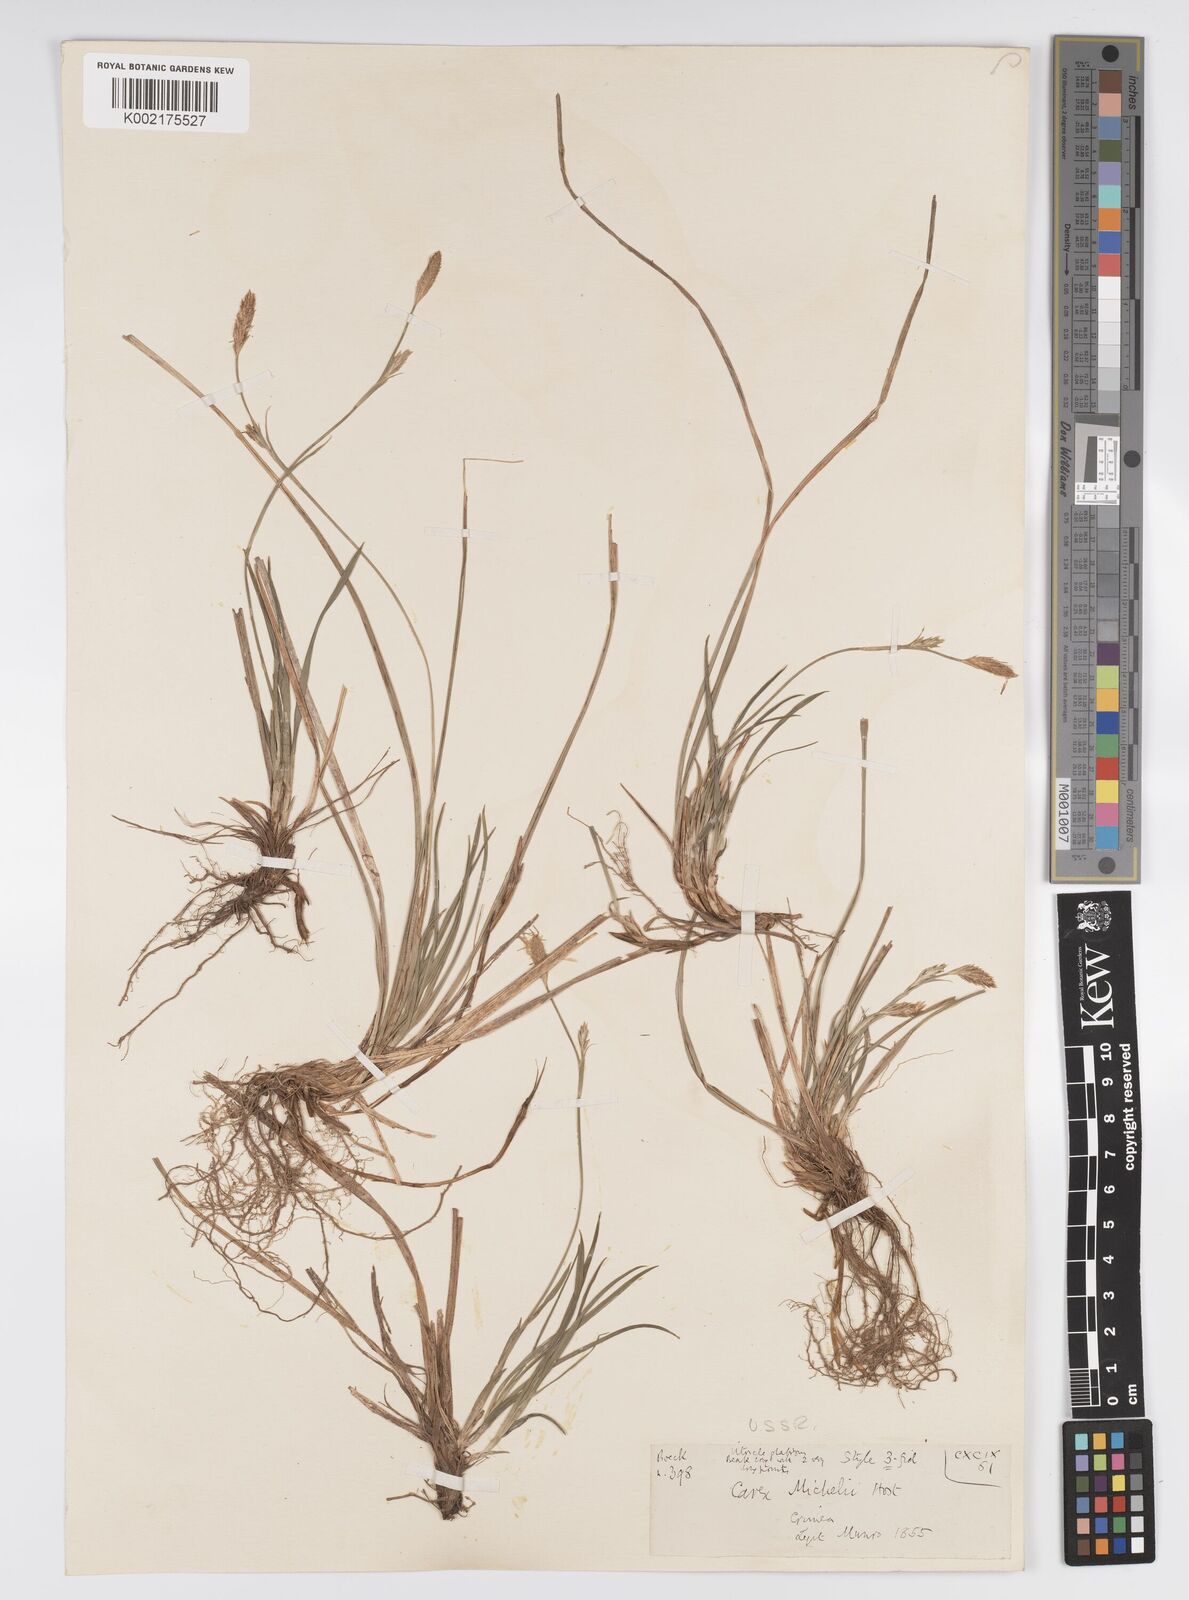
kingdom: Plantae
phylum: Tracheophyta
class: Liliopsida
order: Poales
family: Cyperaceae
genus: Carex
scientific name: Carex michelii
